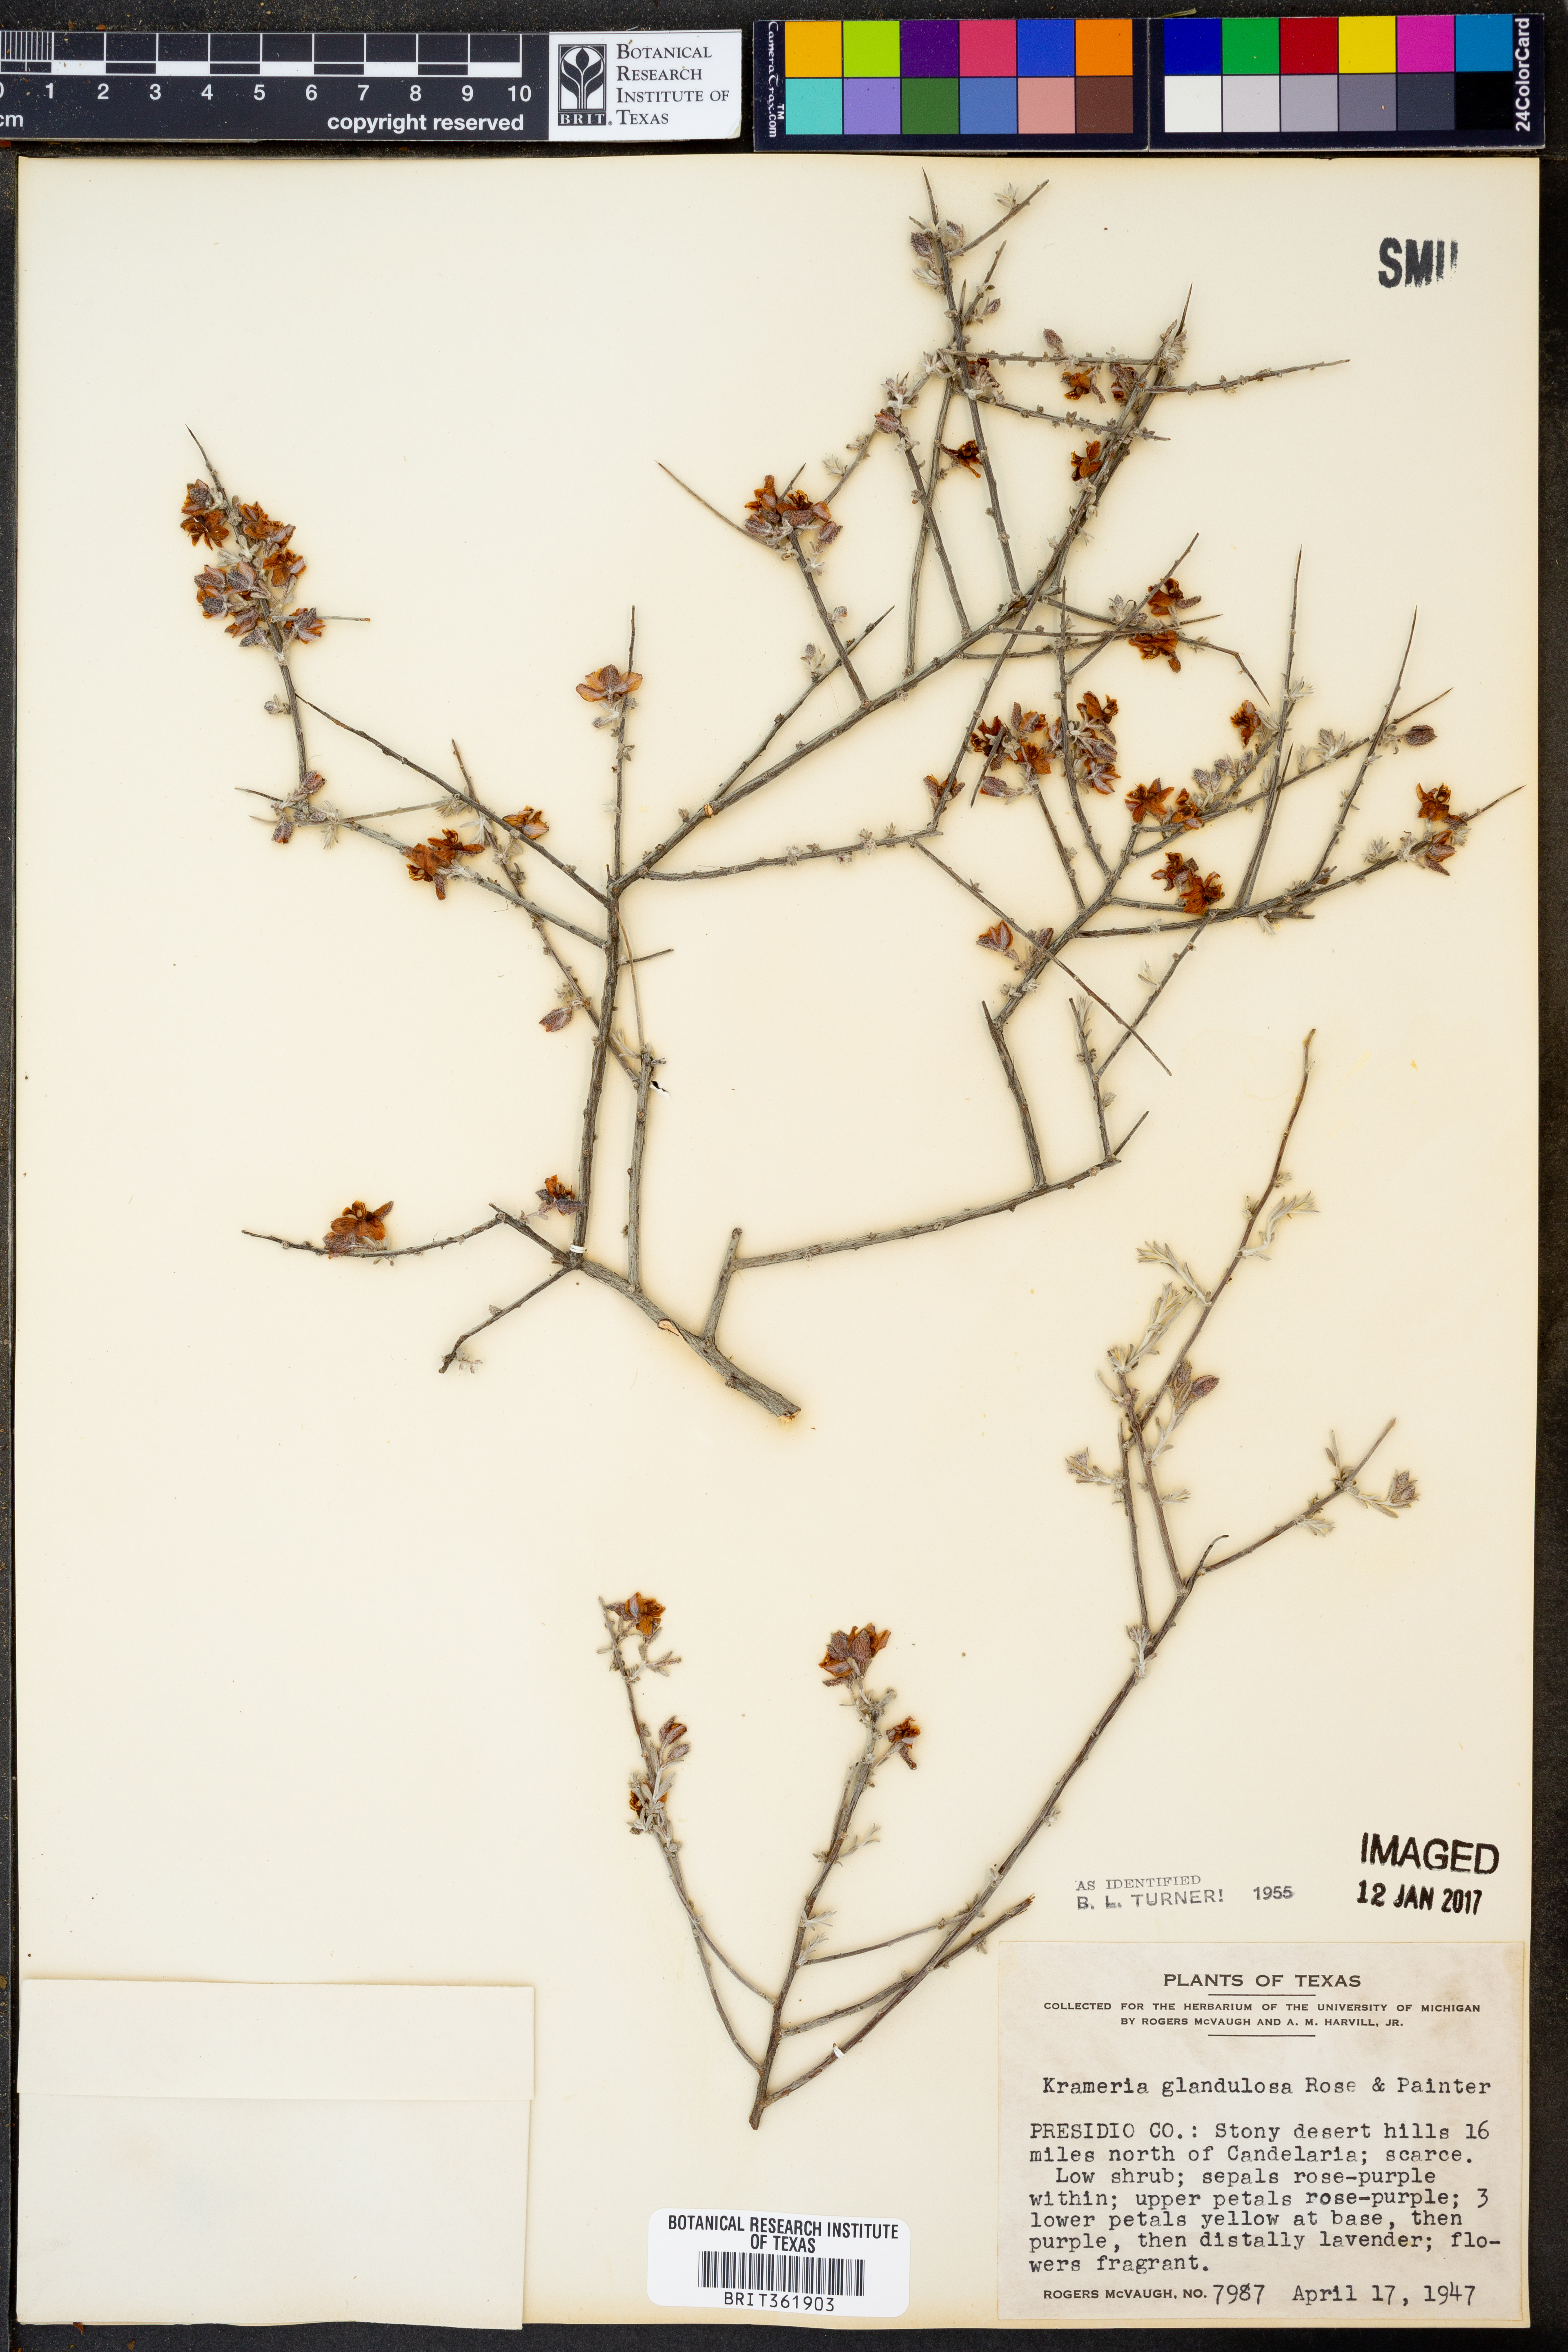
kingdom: Plantae
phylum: Tracheophyta
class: Magnoliopsida
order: Zygophyllales
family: Krameriaceae
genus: Krameria
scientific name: Krameria erecta
